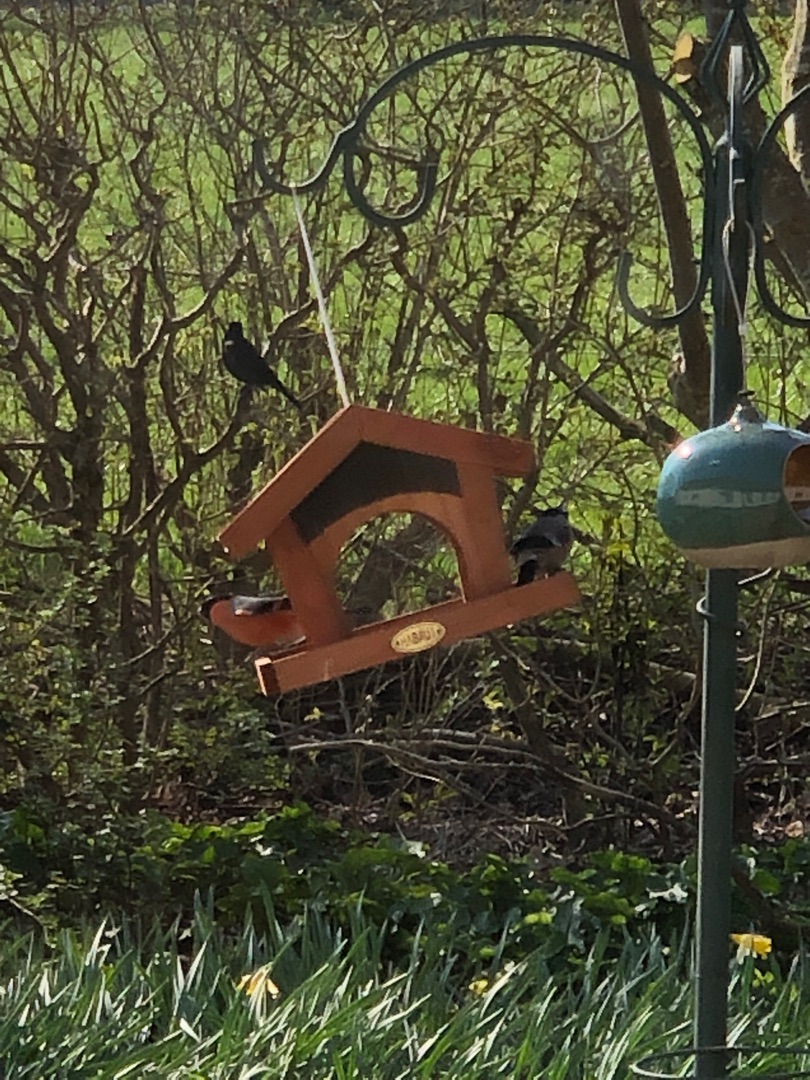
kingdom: Animalia
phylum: Chordata
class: Aves
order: Passeriformes
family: Fringillidae
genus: Pyrrhula
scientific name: Pyrrhula pyrrhula
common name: Dompap
